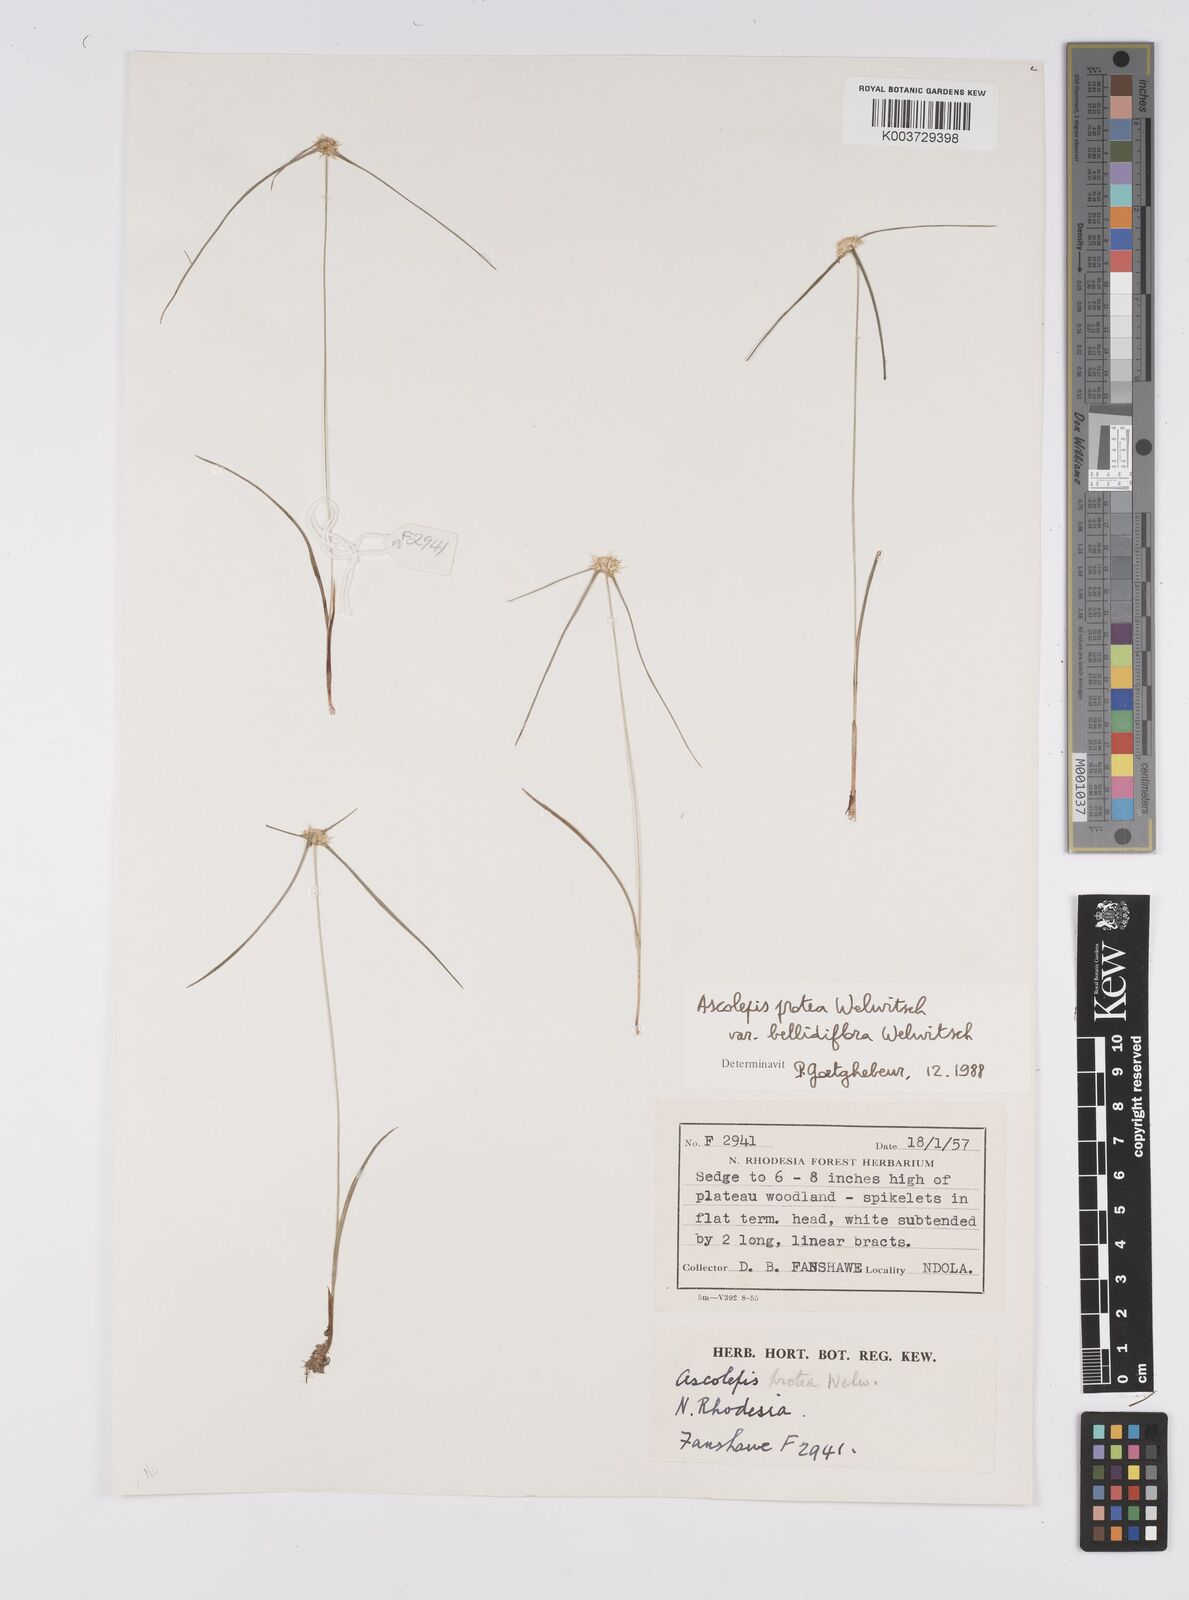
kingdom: Plantae
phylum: Tracheophyta
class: Liliopsida
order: Poales
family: Cyperaceae
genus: Cyperus
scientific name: Cyperus proteus
